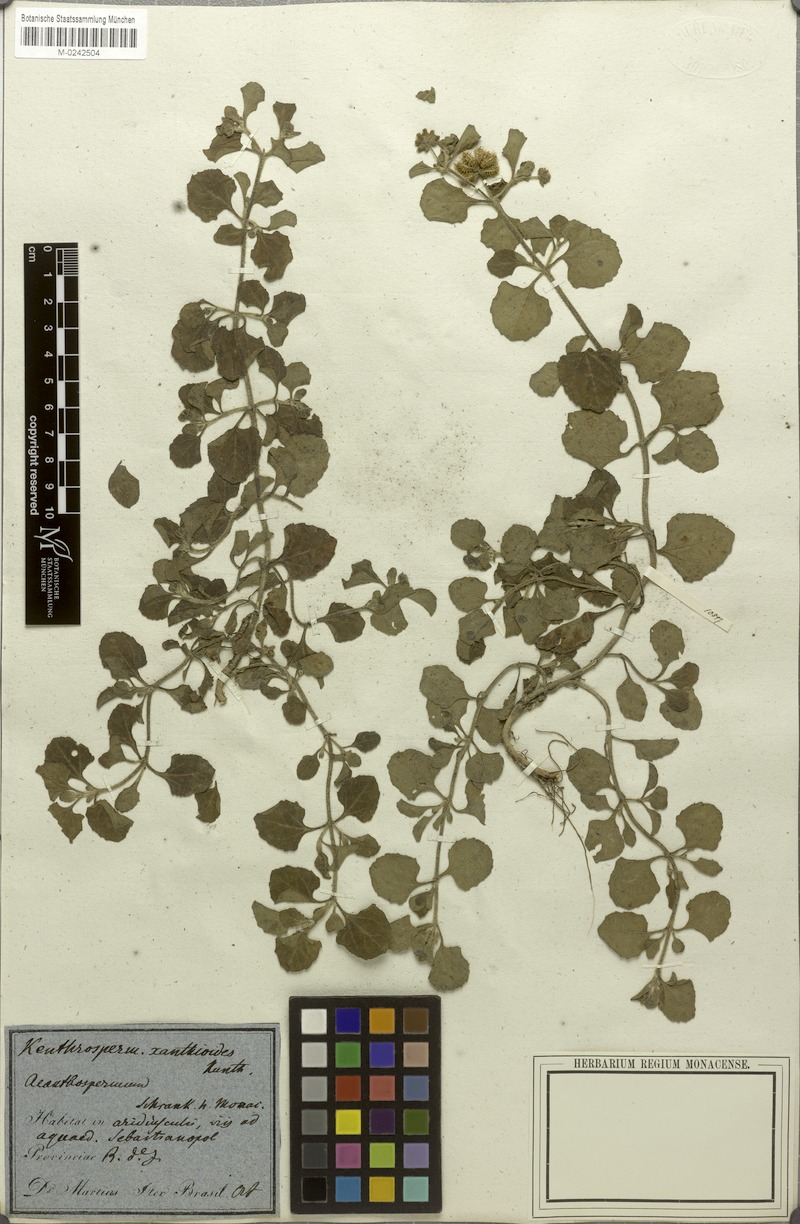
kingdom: Plantae
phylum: Tracheophyta
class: Magnoliopsida
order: Asterales
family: Asteraceae
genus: Acanthospermum
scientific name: Acanthospermum australe
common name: Paraguayan starbur
